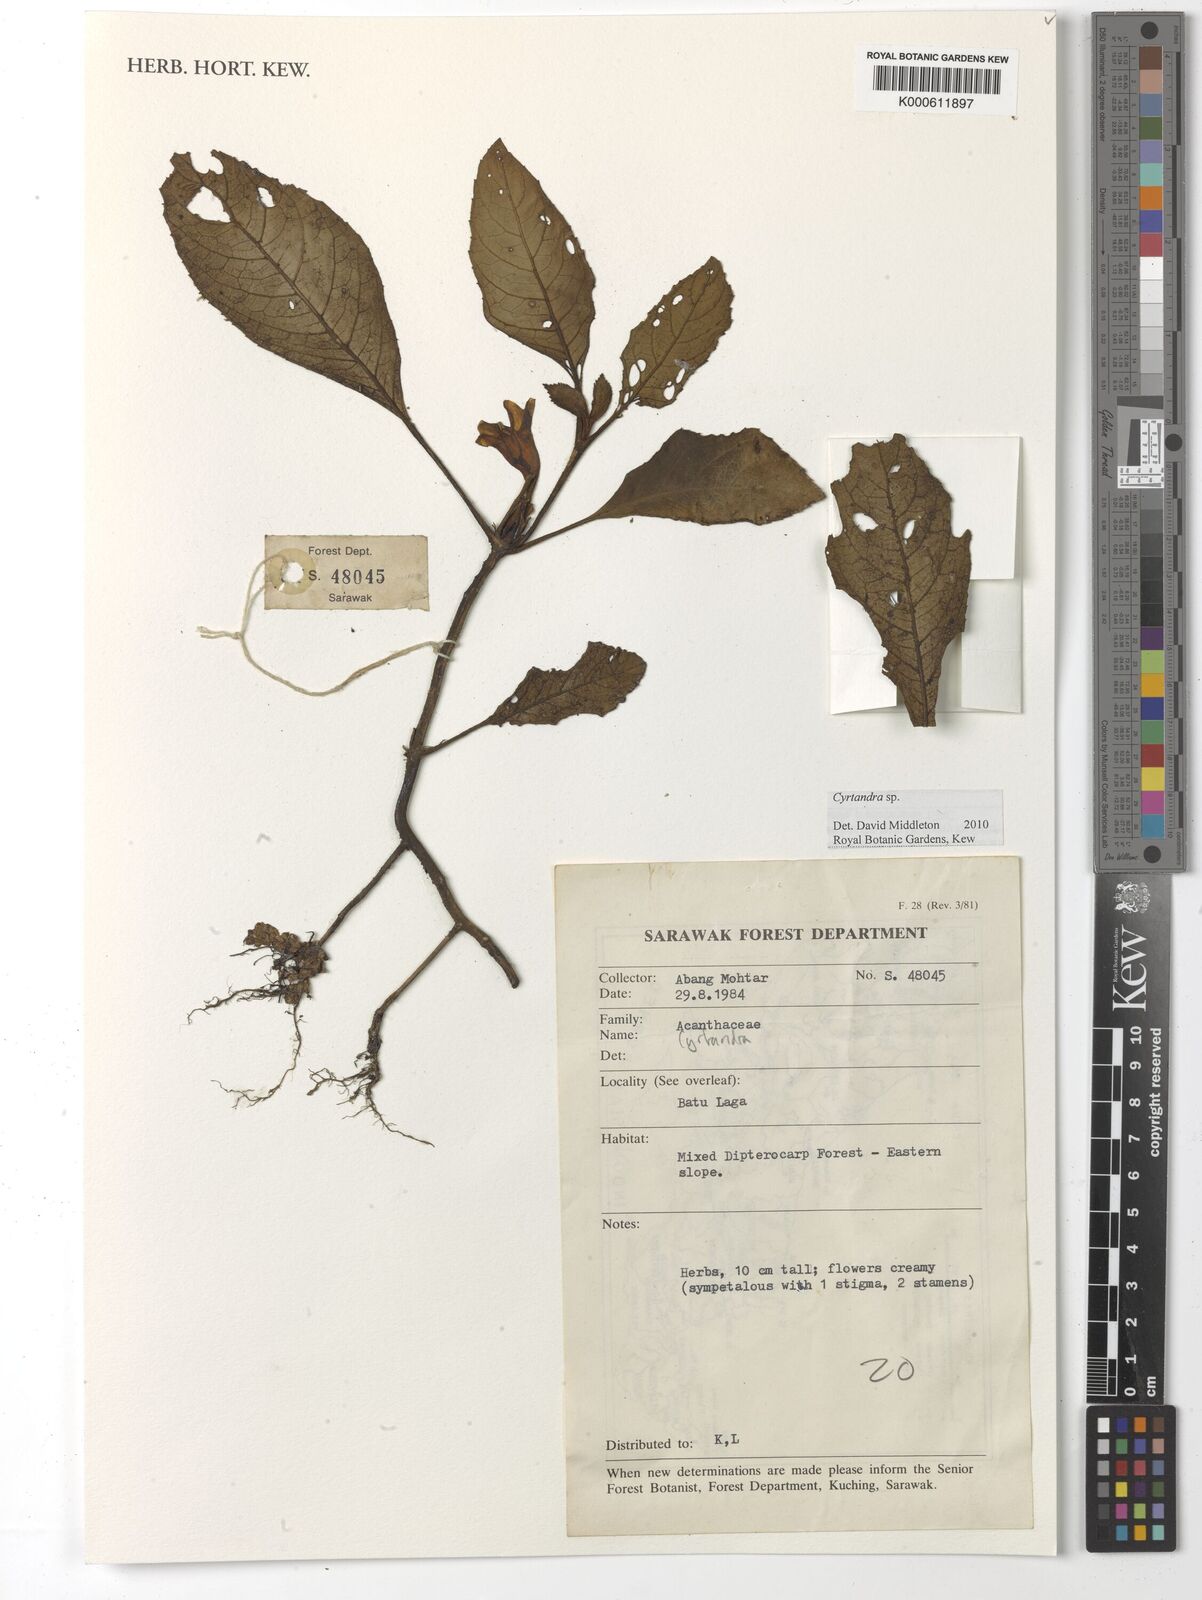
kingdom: Plantae
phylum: Tracheophyta
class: Magnoliopsida
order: Lamiales
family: Gesneriaceae
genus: Cyrtandra
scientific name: Cyrtandra
